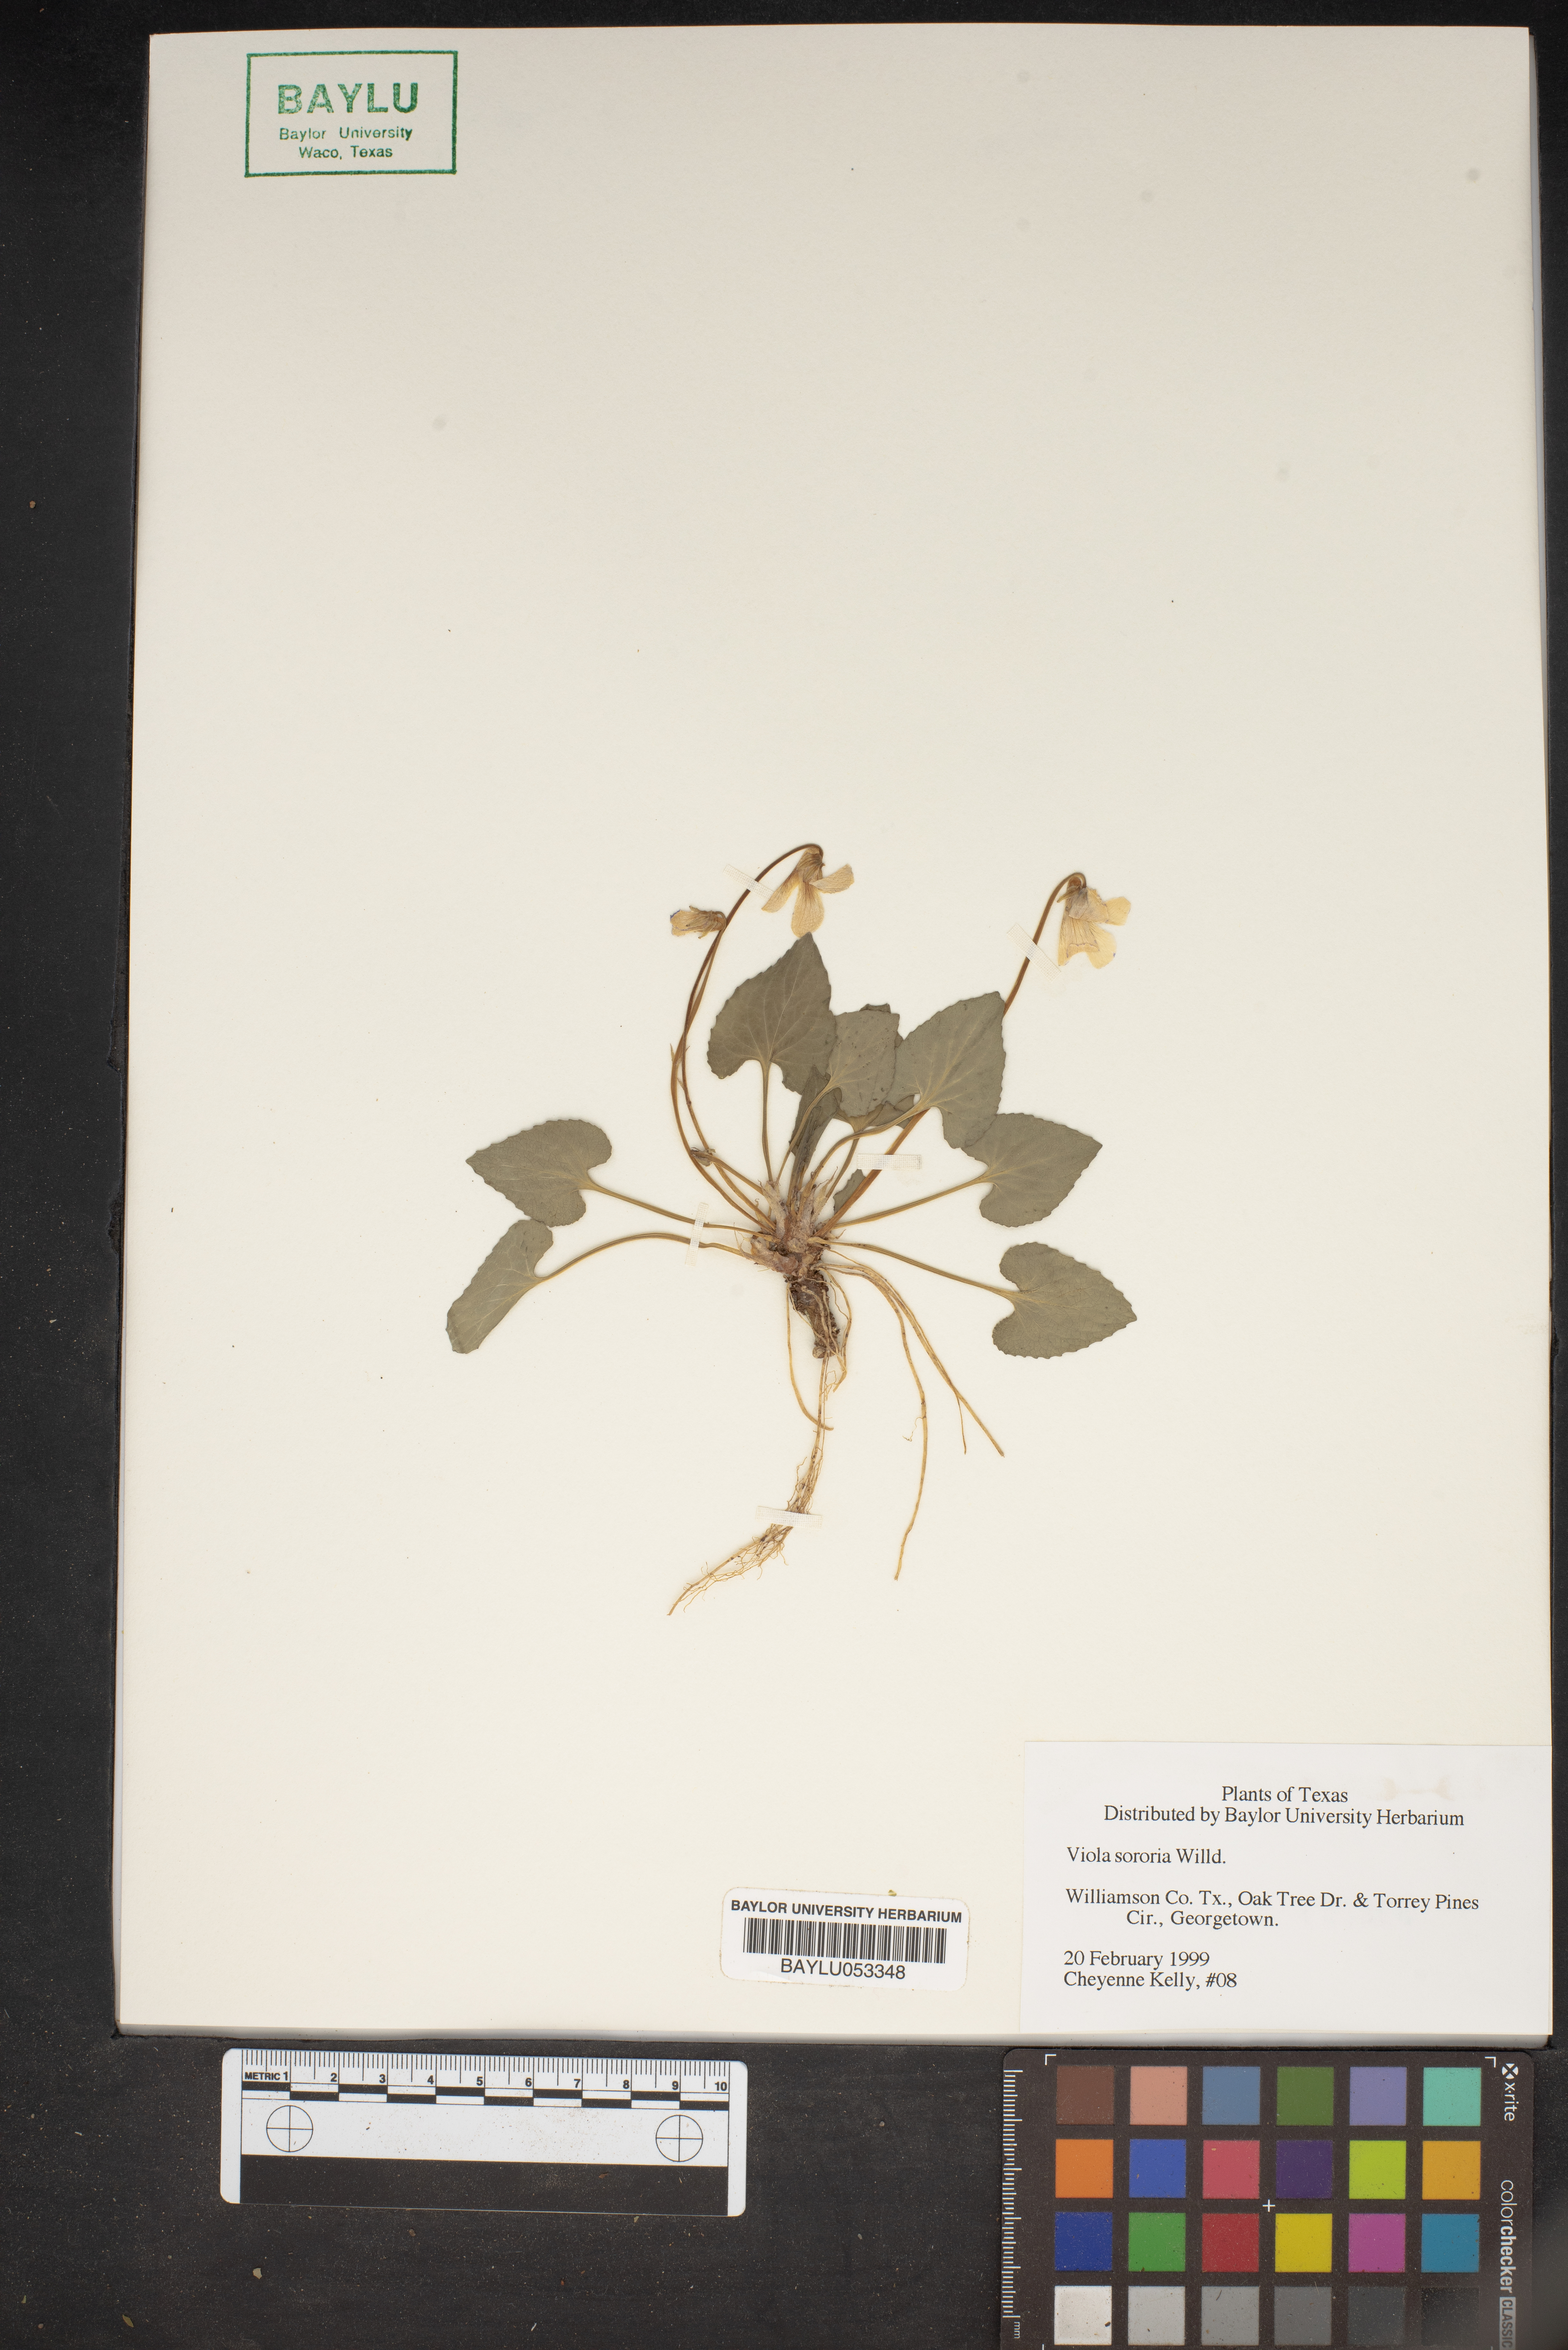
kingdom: Plantae
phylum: Tracheophyta
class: Magnoliopsida
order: Malpighiales
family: Violaceae
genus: Viola
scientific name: Viola sororia
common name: Dooryard violet
